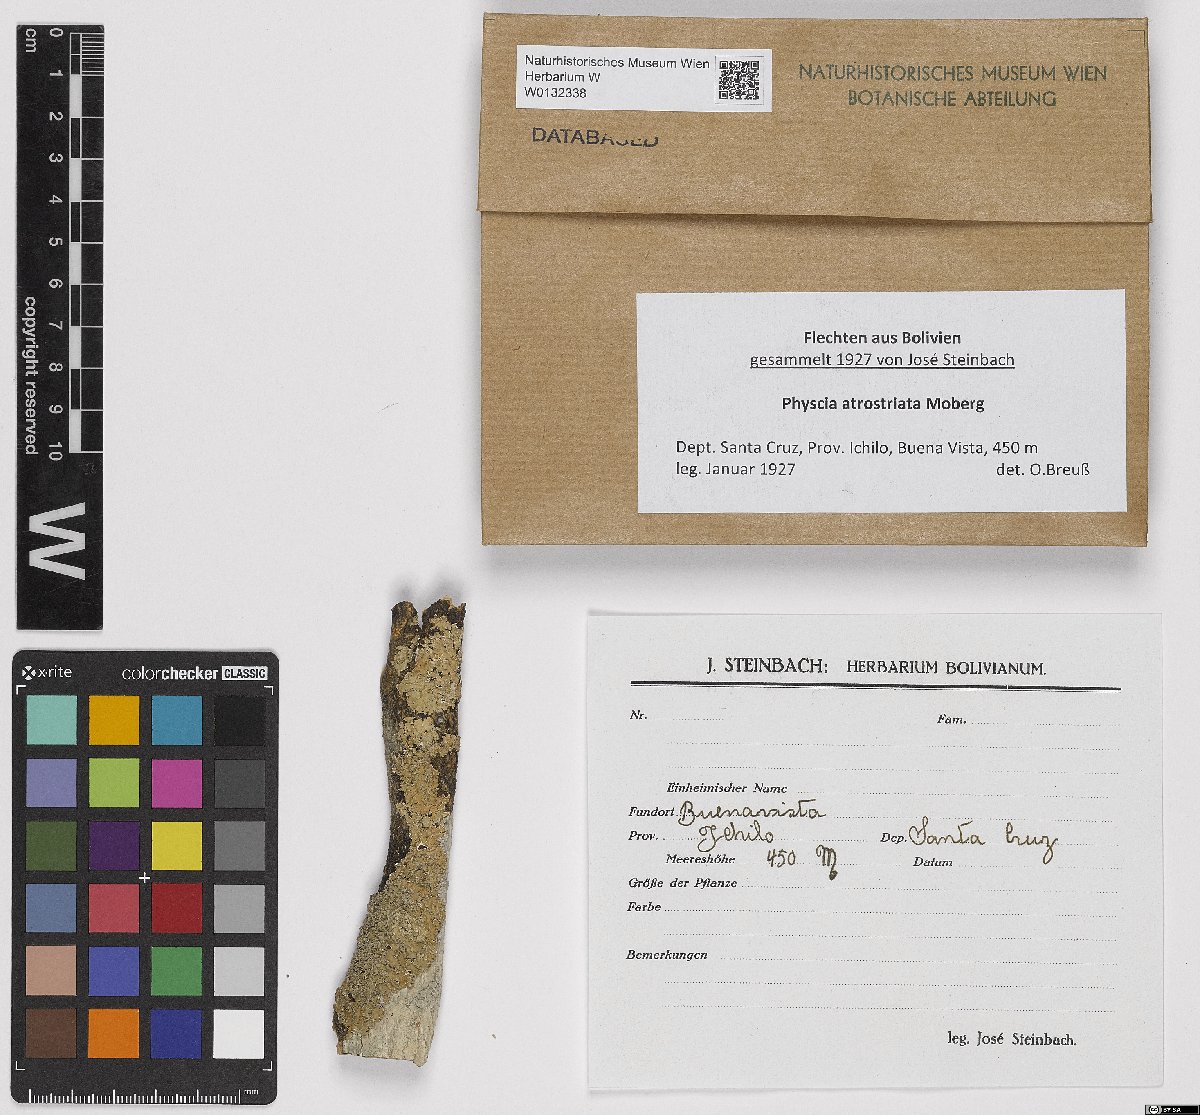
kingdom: Fungi
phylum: Ascomycota
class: Lecanoromycetes
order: Caliciales
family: Physciaceae
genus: Physcia
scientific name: Physcia atrostriata
